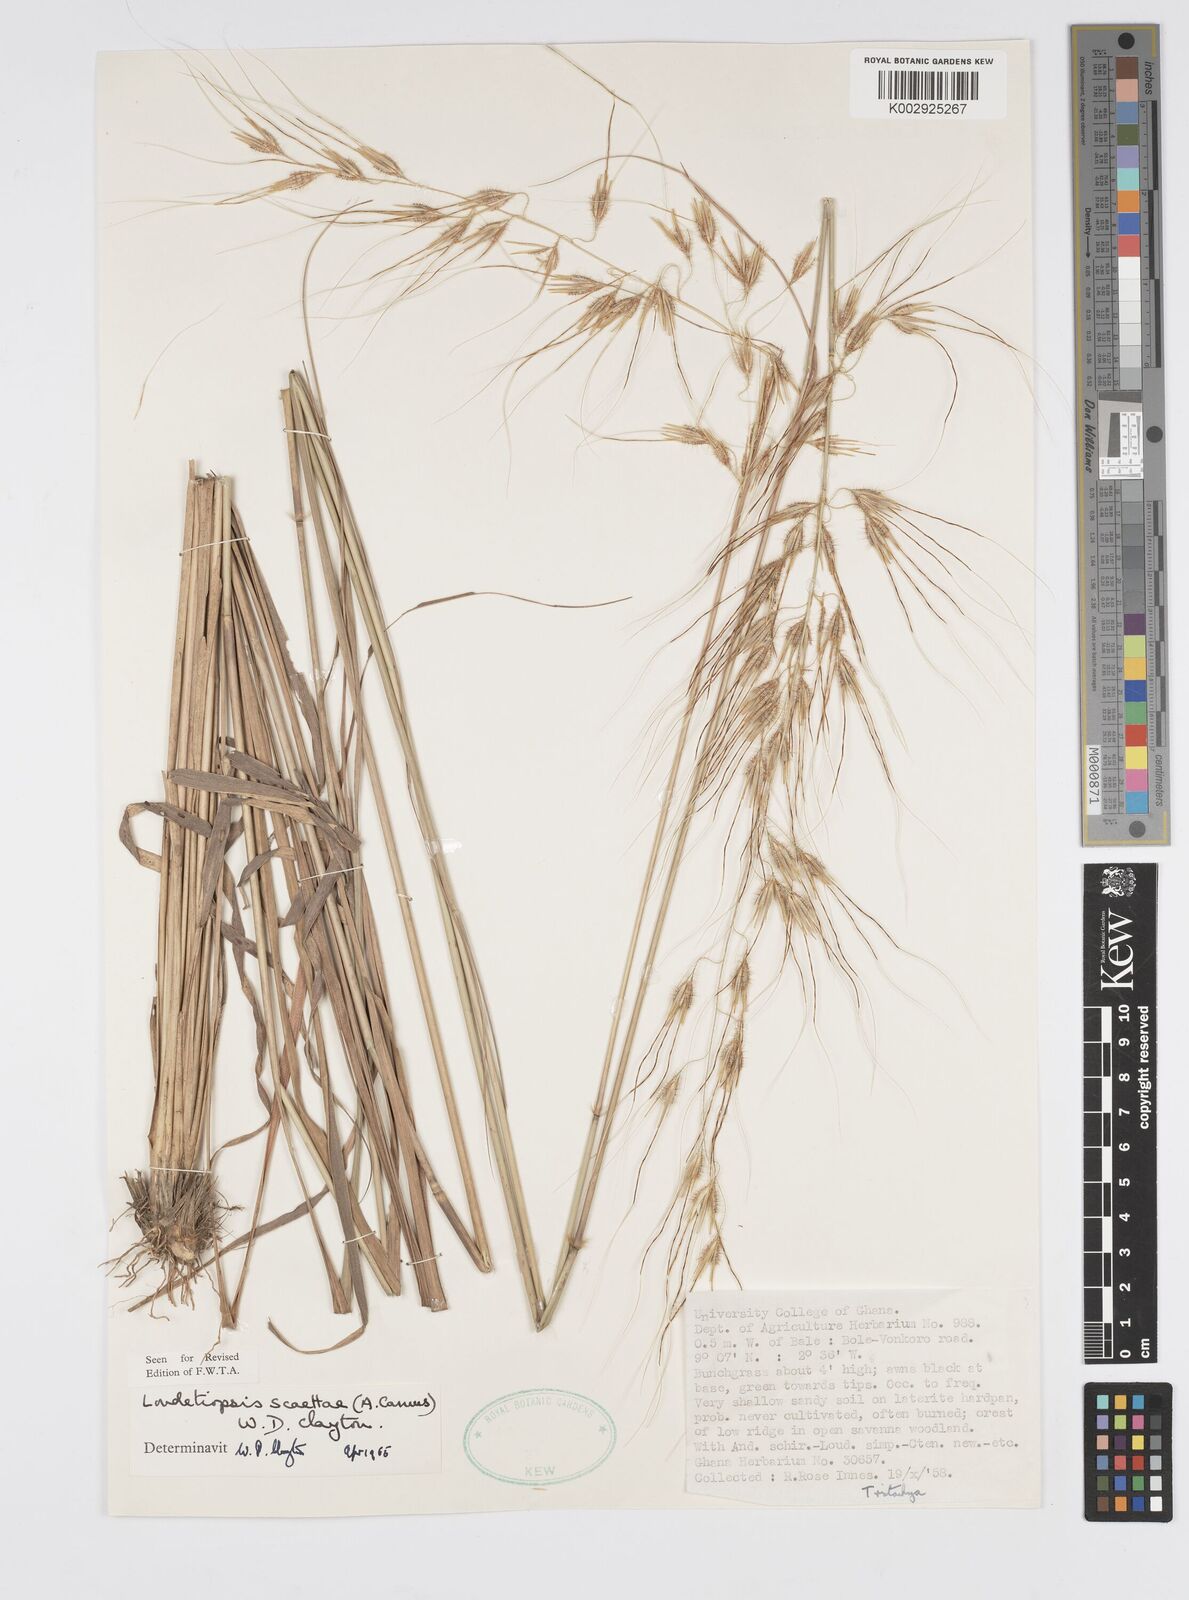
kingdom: Plantae
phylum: Tracheophyta
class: Liliopsida
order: Poales
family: Poaceae
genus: Loudetiopsis
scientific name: Loudetiopsis scaettae
